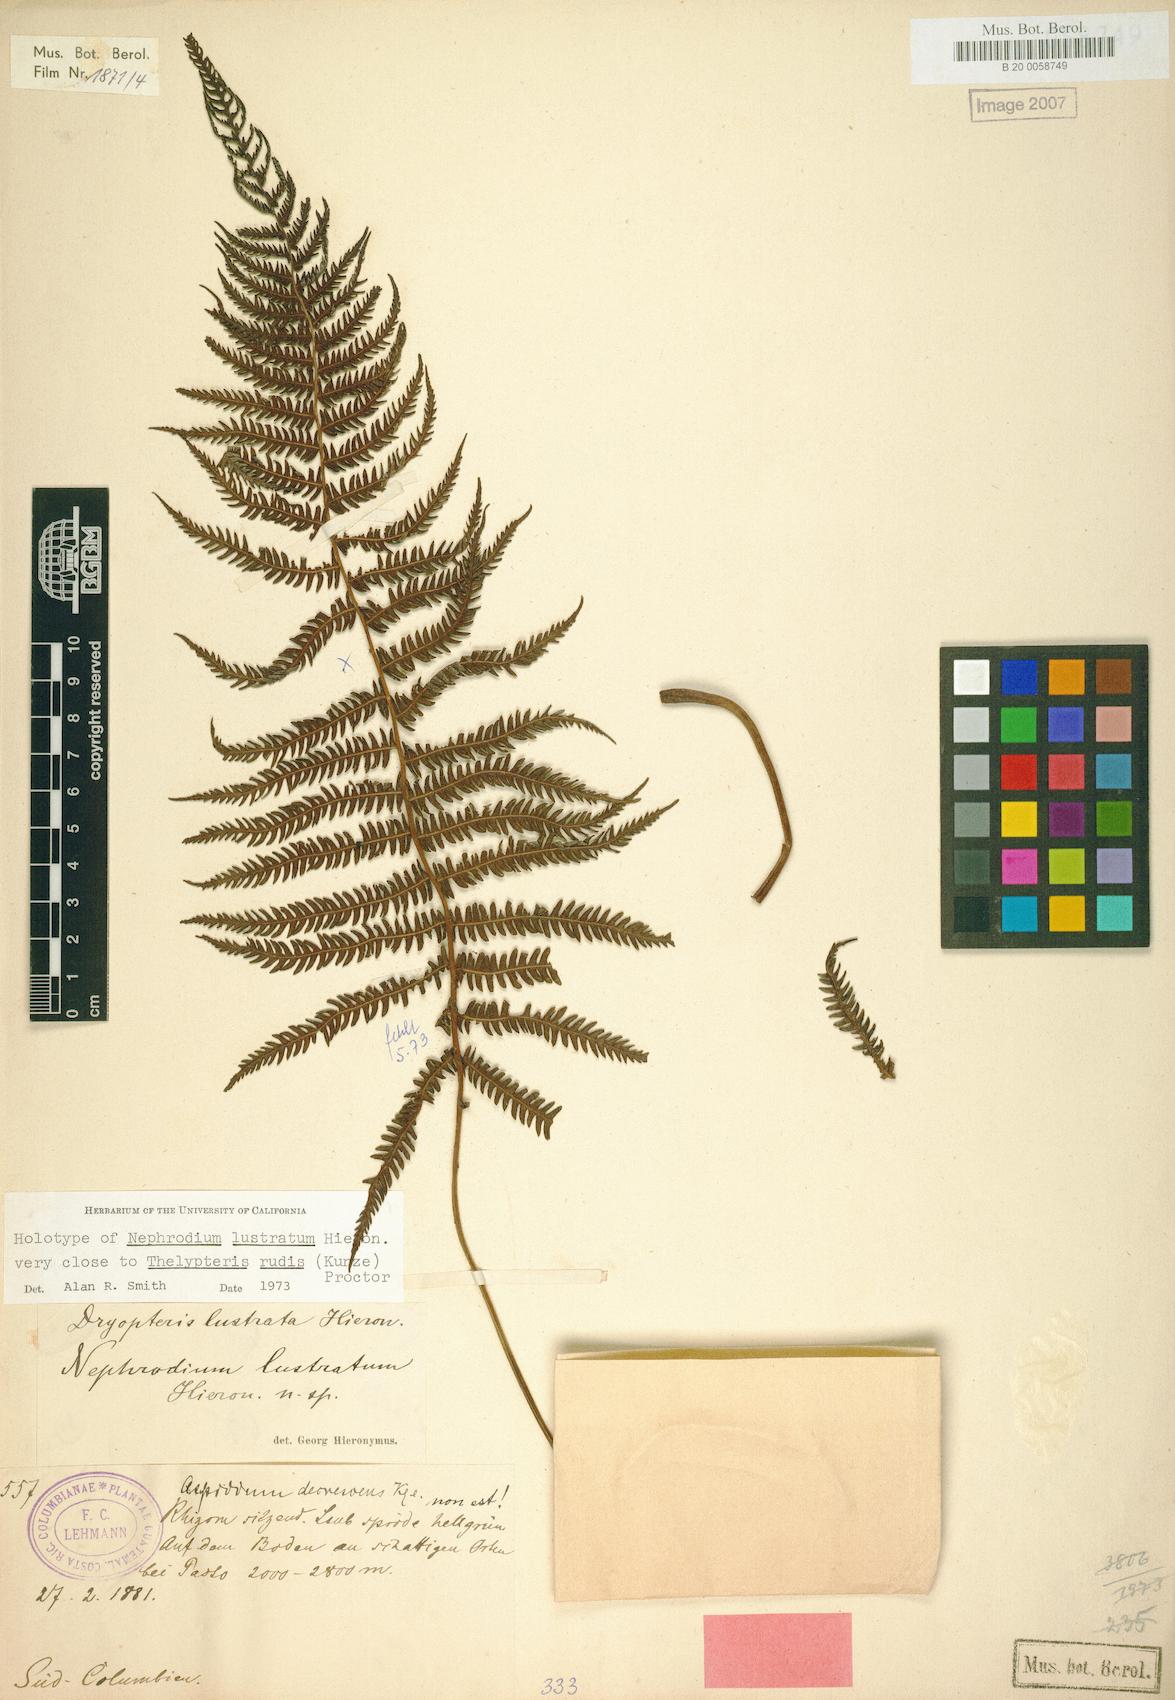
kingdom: Plantae
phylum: Tracheophyta
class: Polypodiopsida
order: Polypodiales
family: Dryopteridaceae
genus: Dryopteris
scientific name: Dryopteris lustrata
